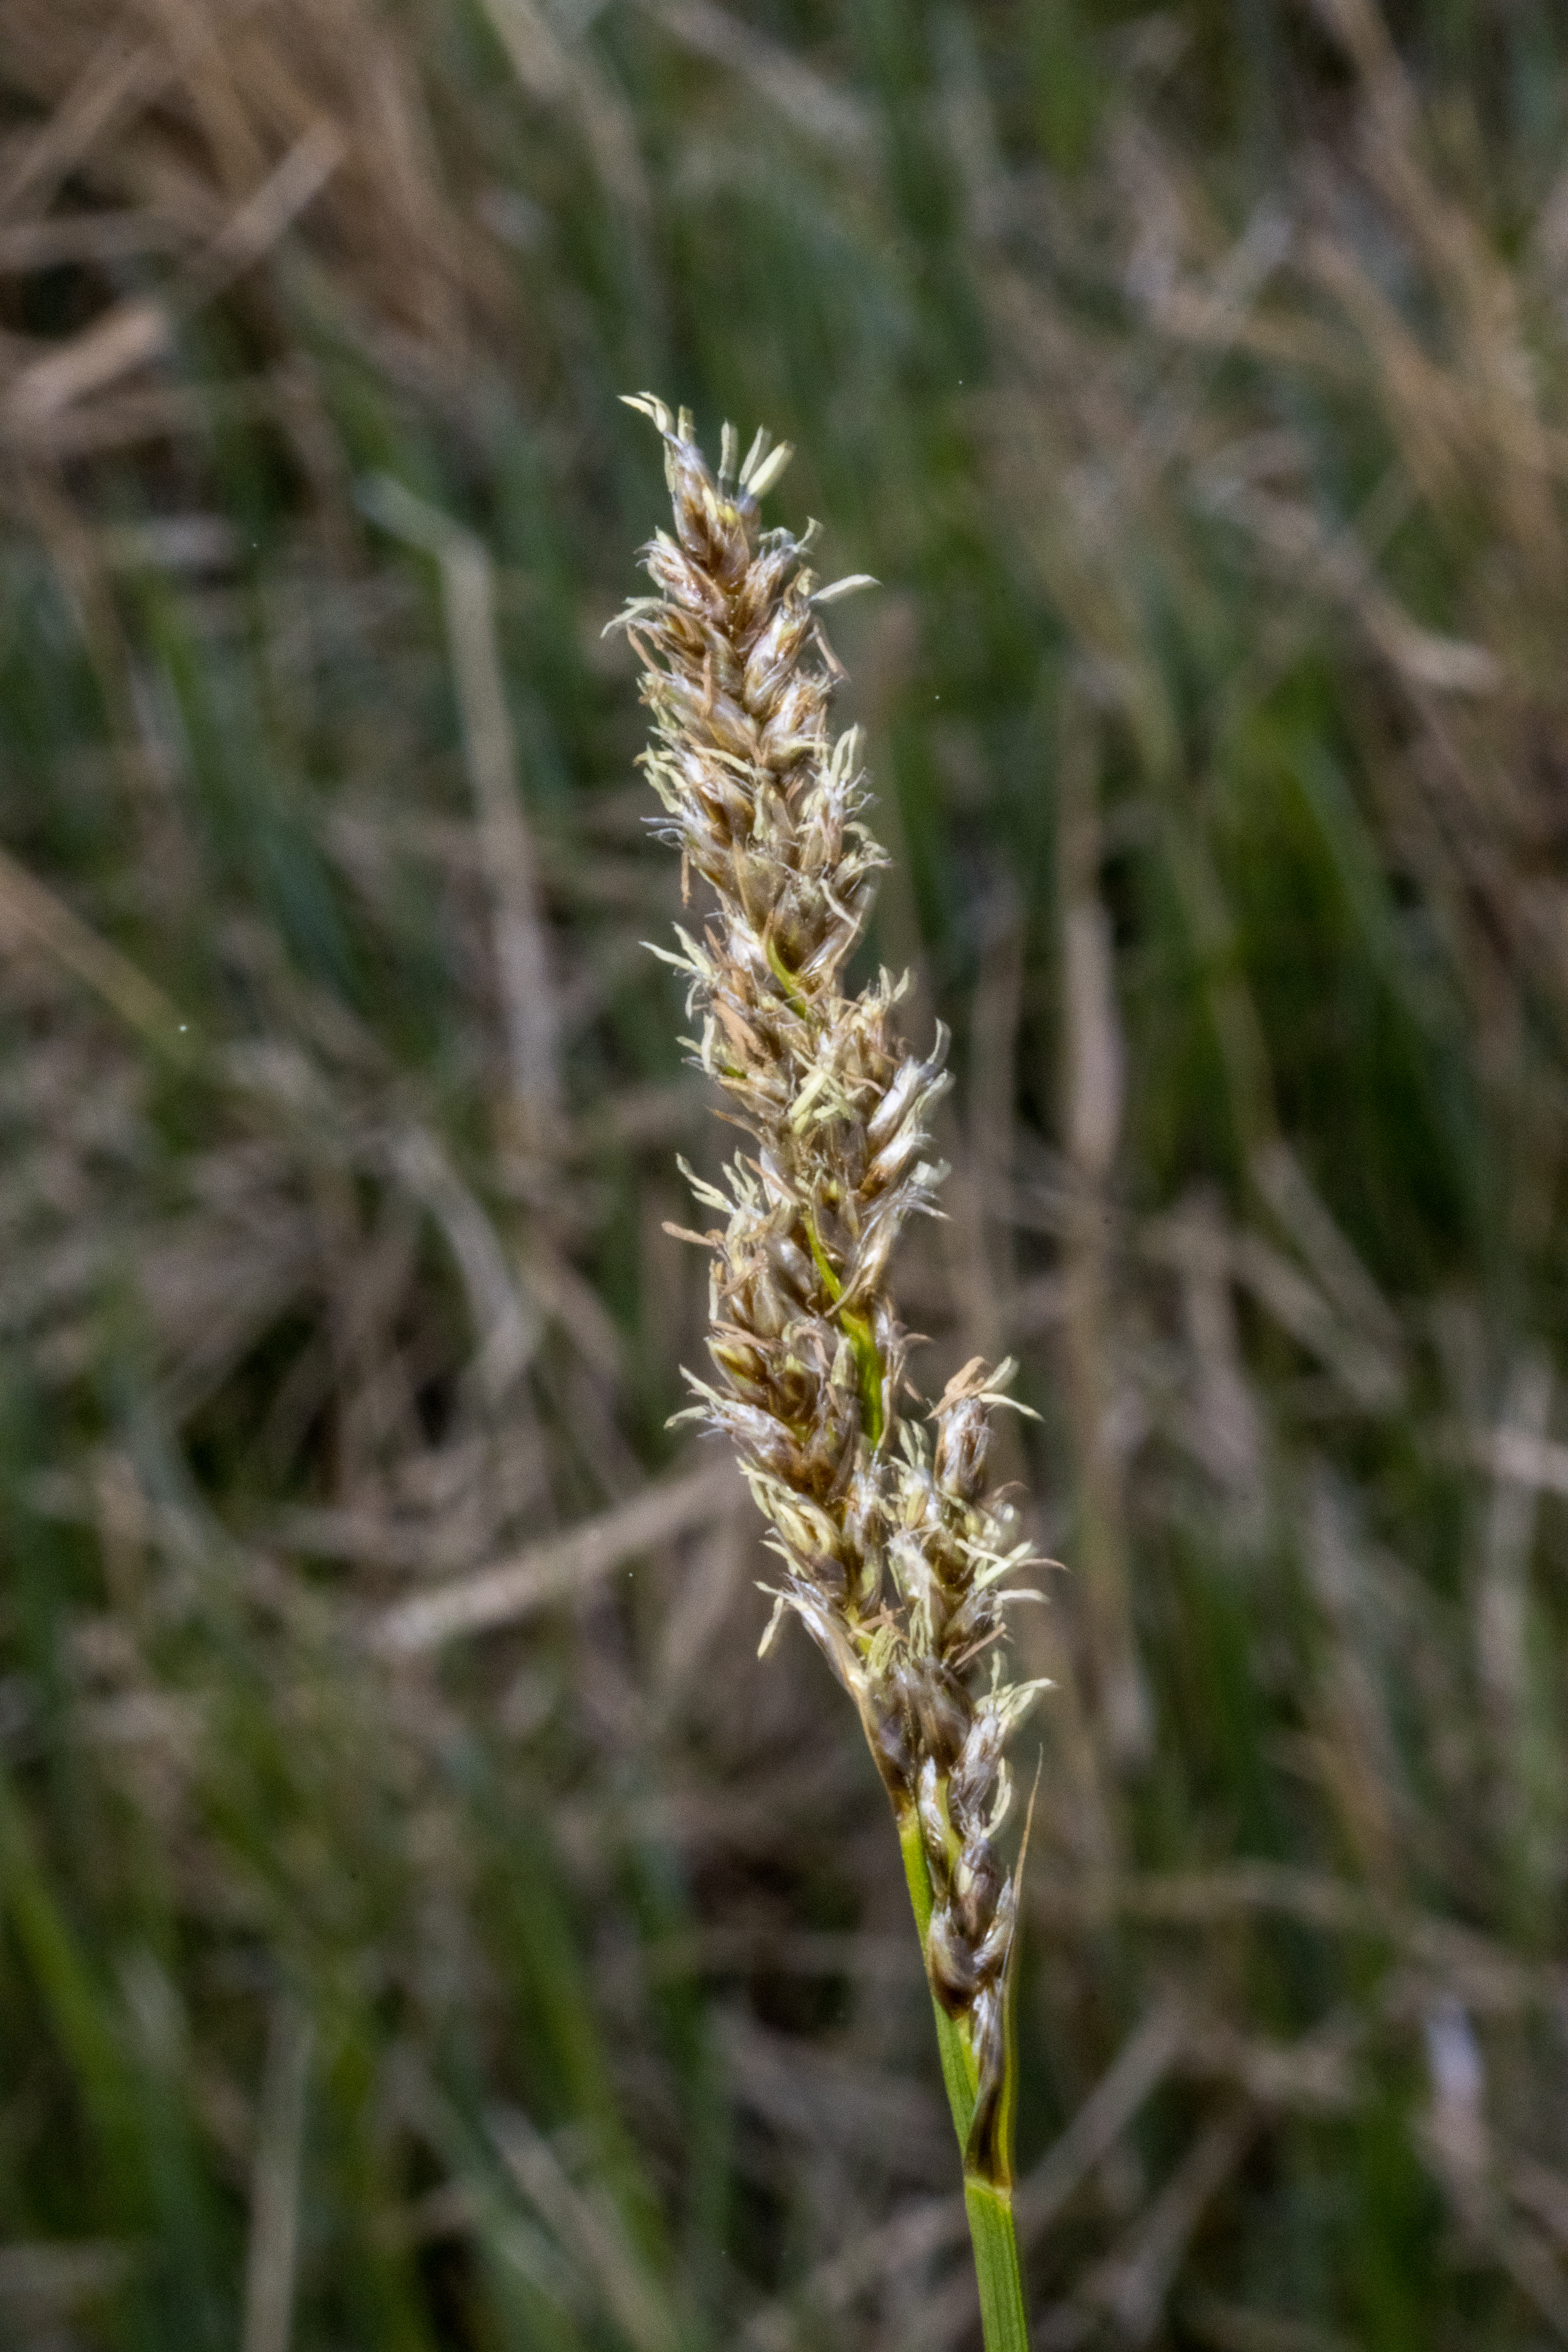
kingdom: Plantae
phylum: Tracheophyta
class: Liliopsida
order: Poales
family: Cyperaceae
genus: Carex
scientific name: Carex paniculata
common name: Top-star
